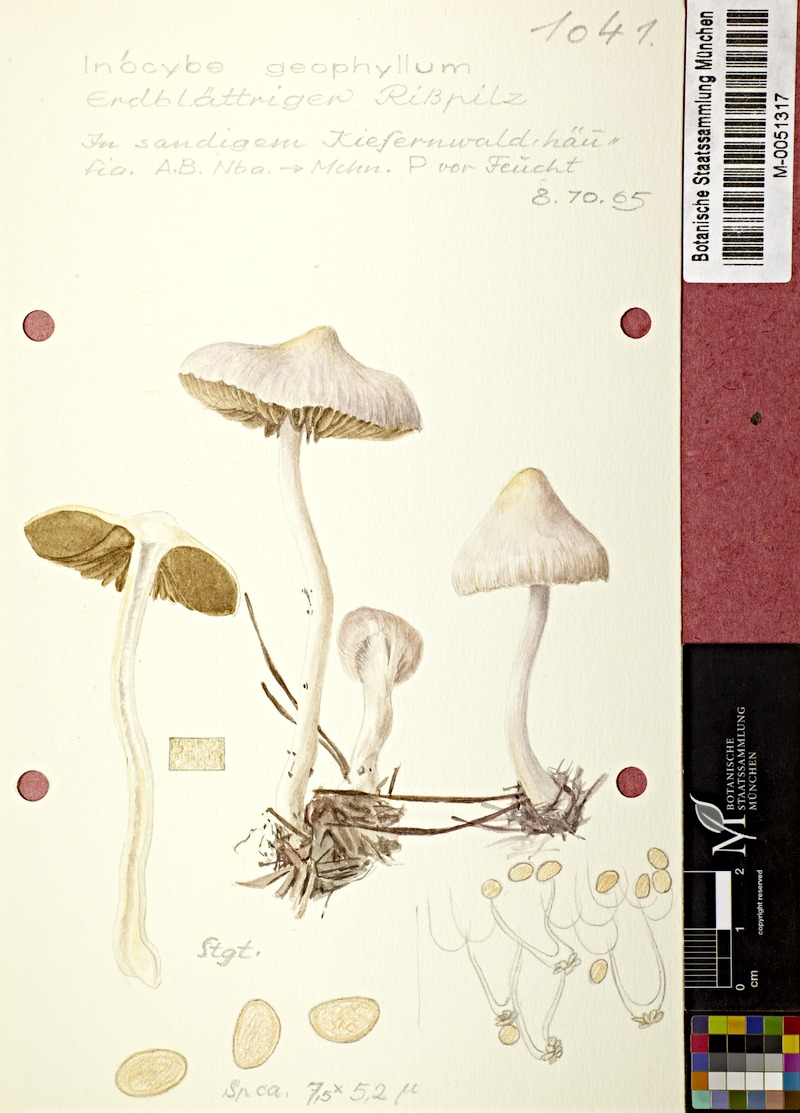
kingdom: Fungi
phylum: Basidiomycota
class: Agaricomycetes
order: Agaricales
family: Inocybaceae
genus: Inocybe
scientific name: Inocybe geophylla
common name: White fibrecap
